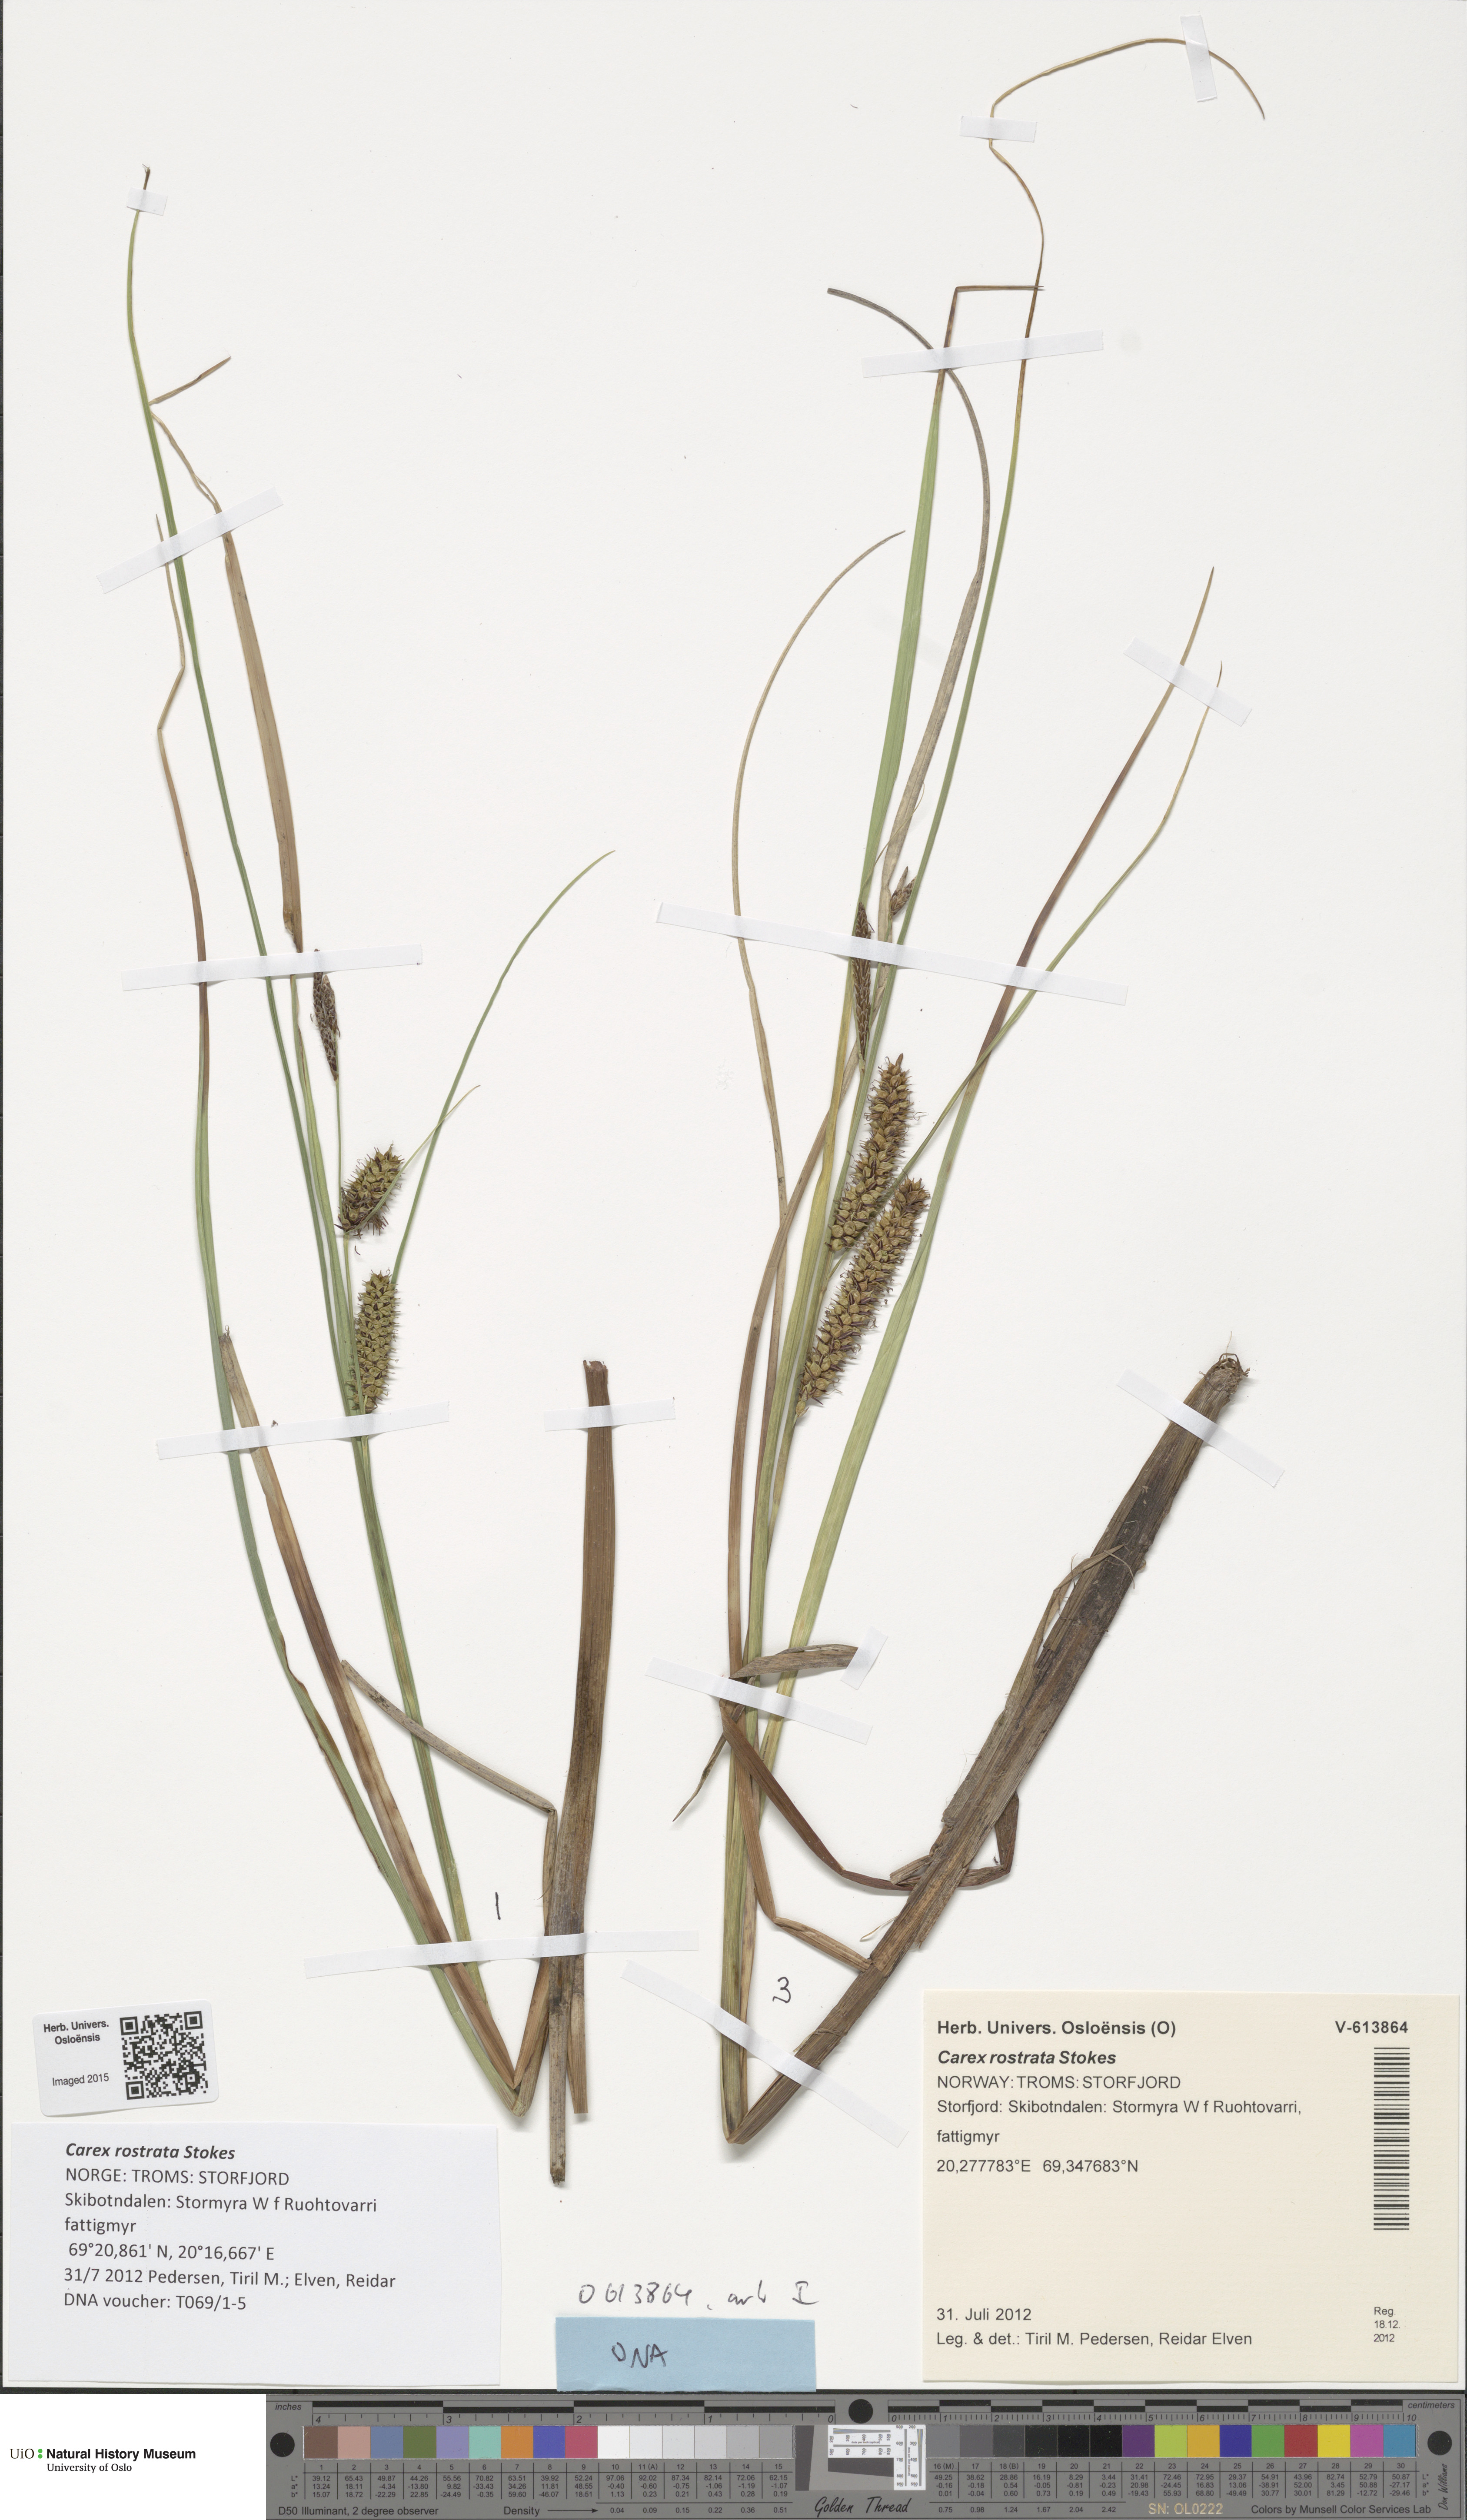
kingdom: Plantae
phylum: Tracheophyta
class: Liliopsida
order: Poales
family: Cyperaceae
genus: Carex
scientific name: Carex rostrata
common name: Bottle sedge
